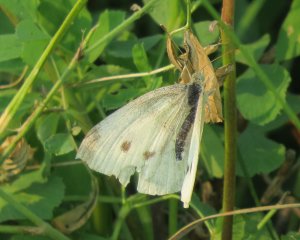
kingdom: Animalia
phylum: Arthropoda
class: Insecta
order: Lepidoptera
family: Pieridae
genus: Pieris
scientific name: Pieris rapae
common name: Cabbage White
